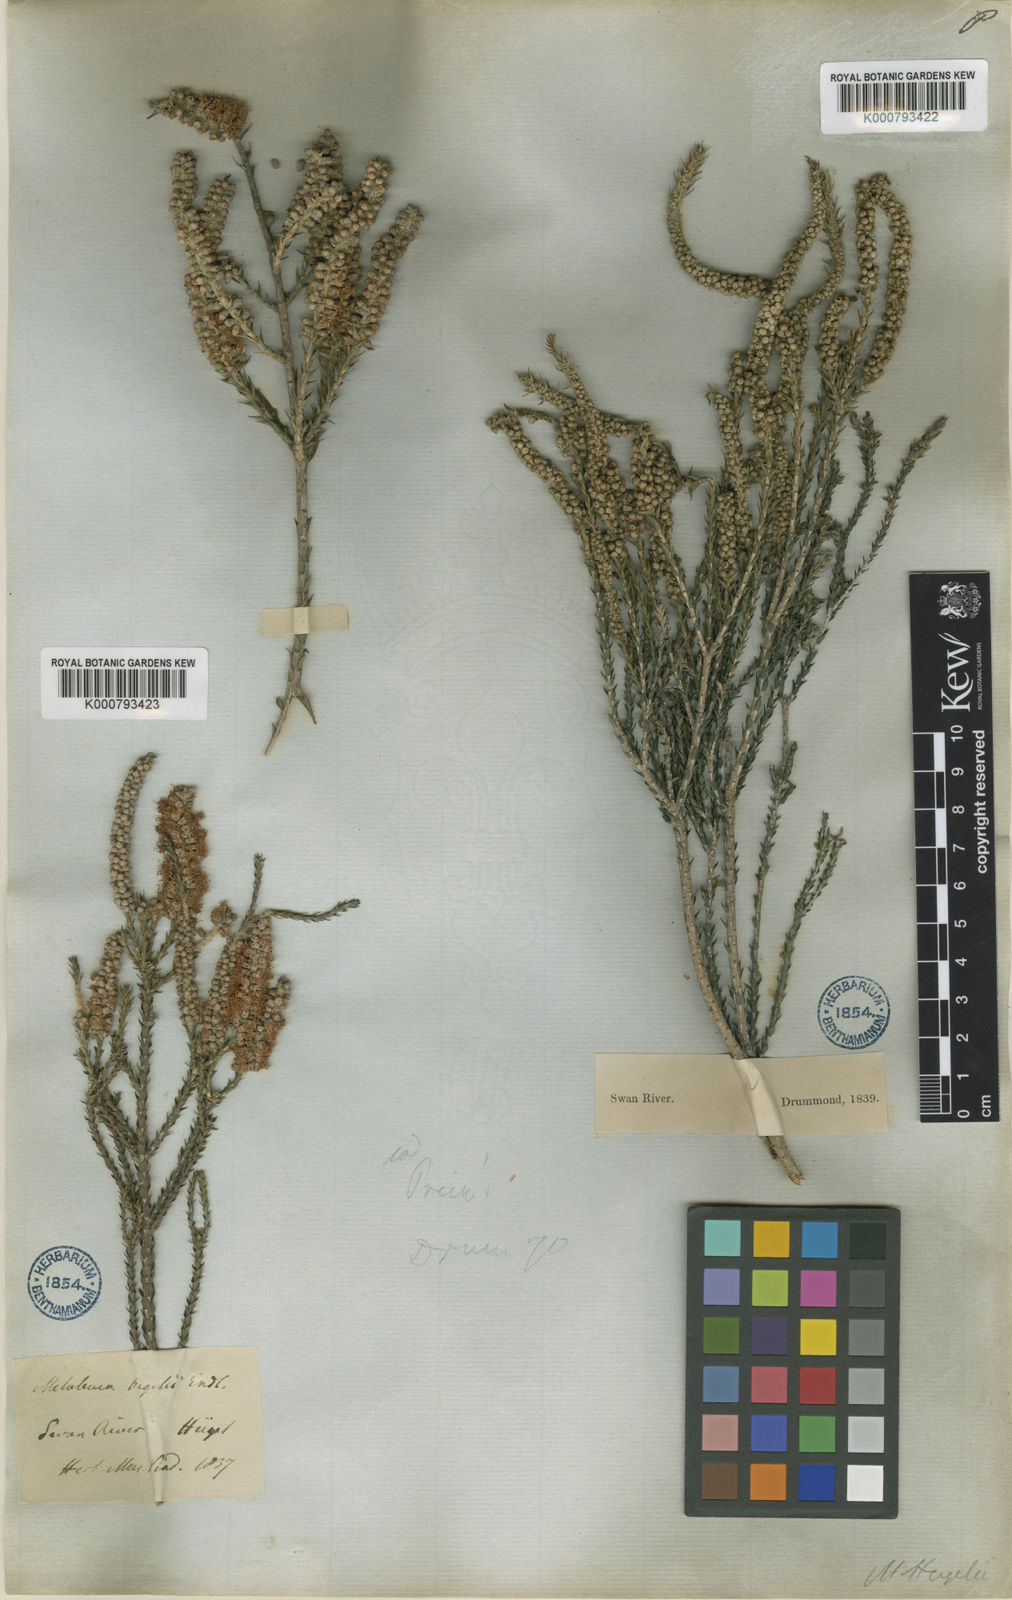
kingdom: Plantae
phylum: Tracheophyta
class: Magnoliopsida
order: Myrtales
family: Myrtaceae
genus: Melaleuca
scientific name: Melaleuca huegelii
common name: Chenille honey myrtle
